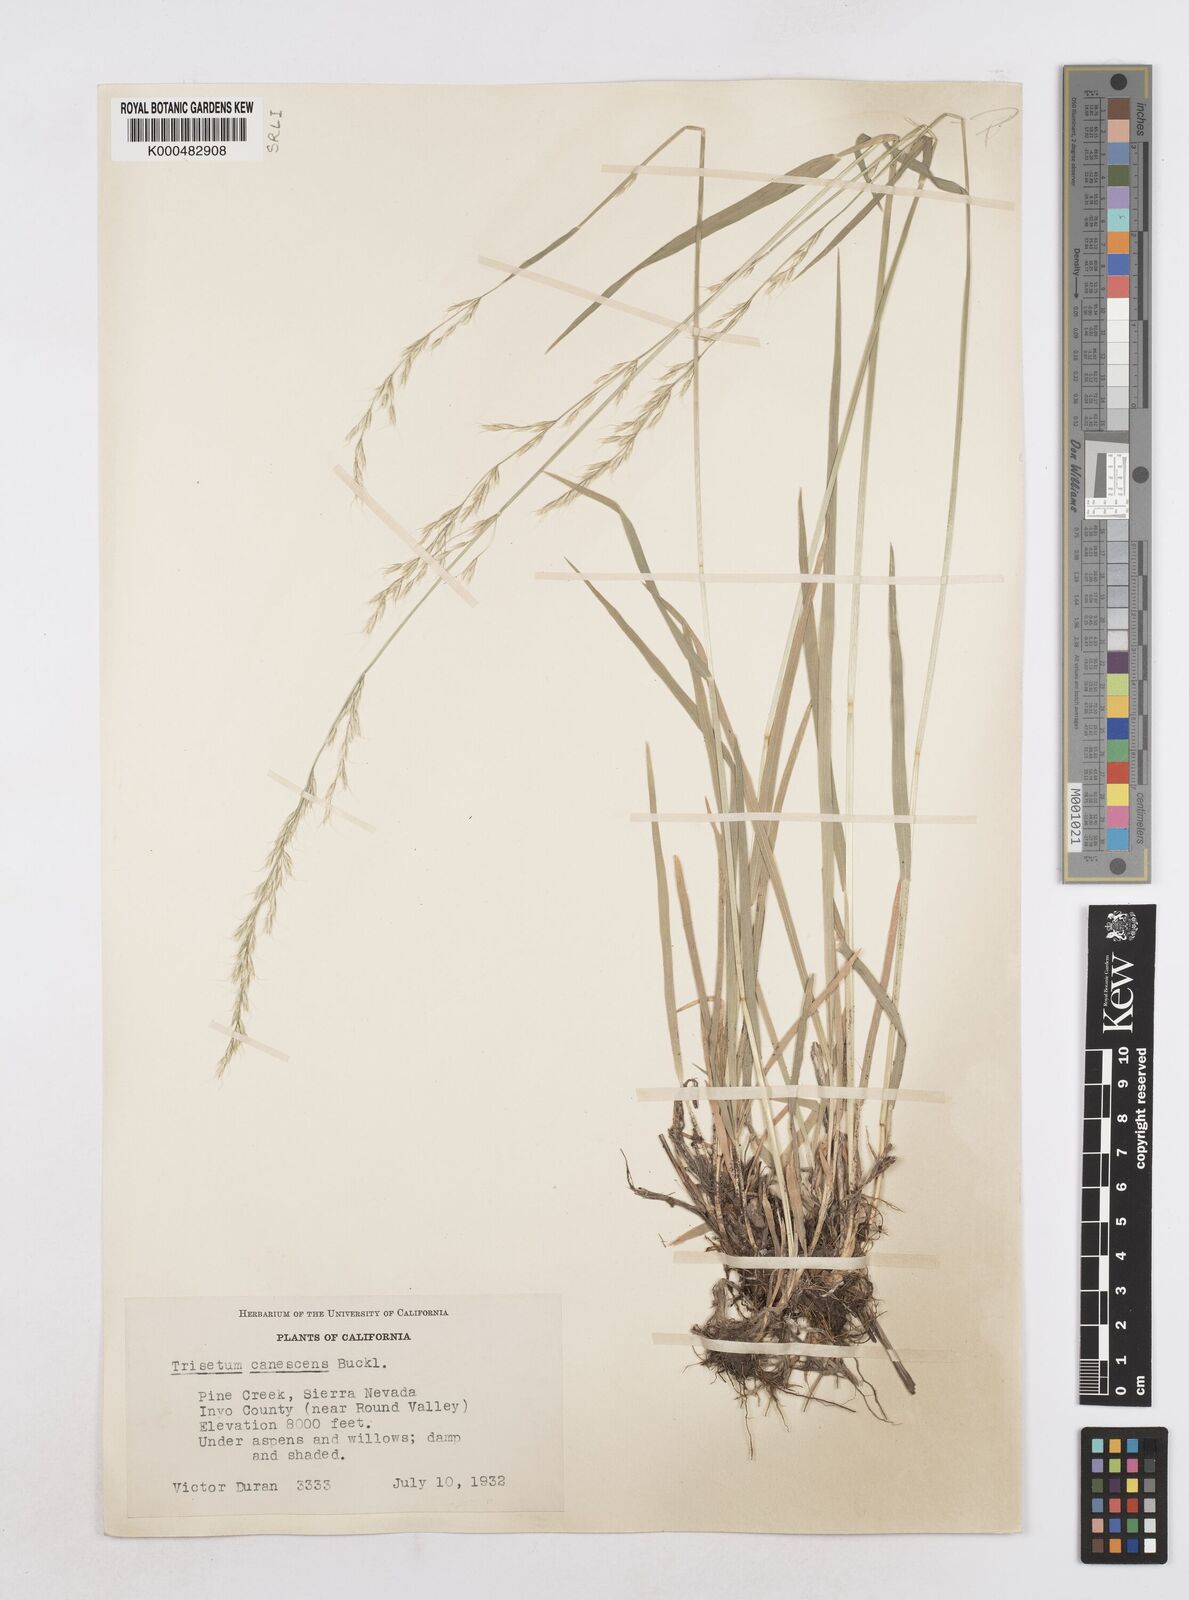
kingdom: Plantae
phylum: Tracheophyta
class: Liliopsida
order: Poales
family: Poaceae
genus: Graphephorum
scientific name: Graphephorum canescens
